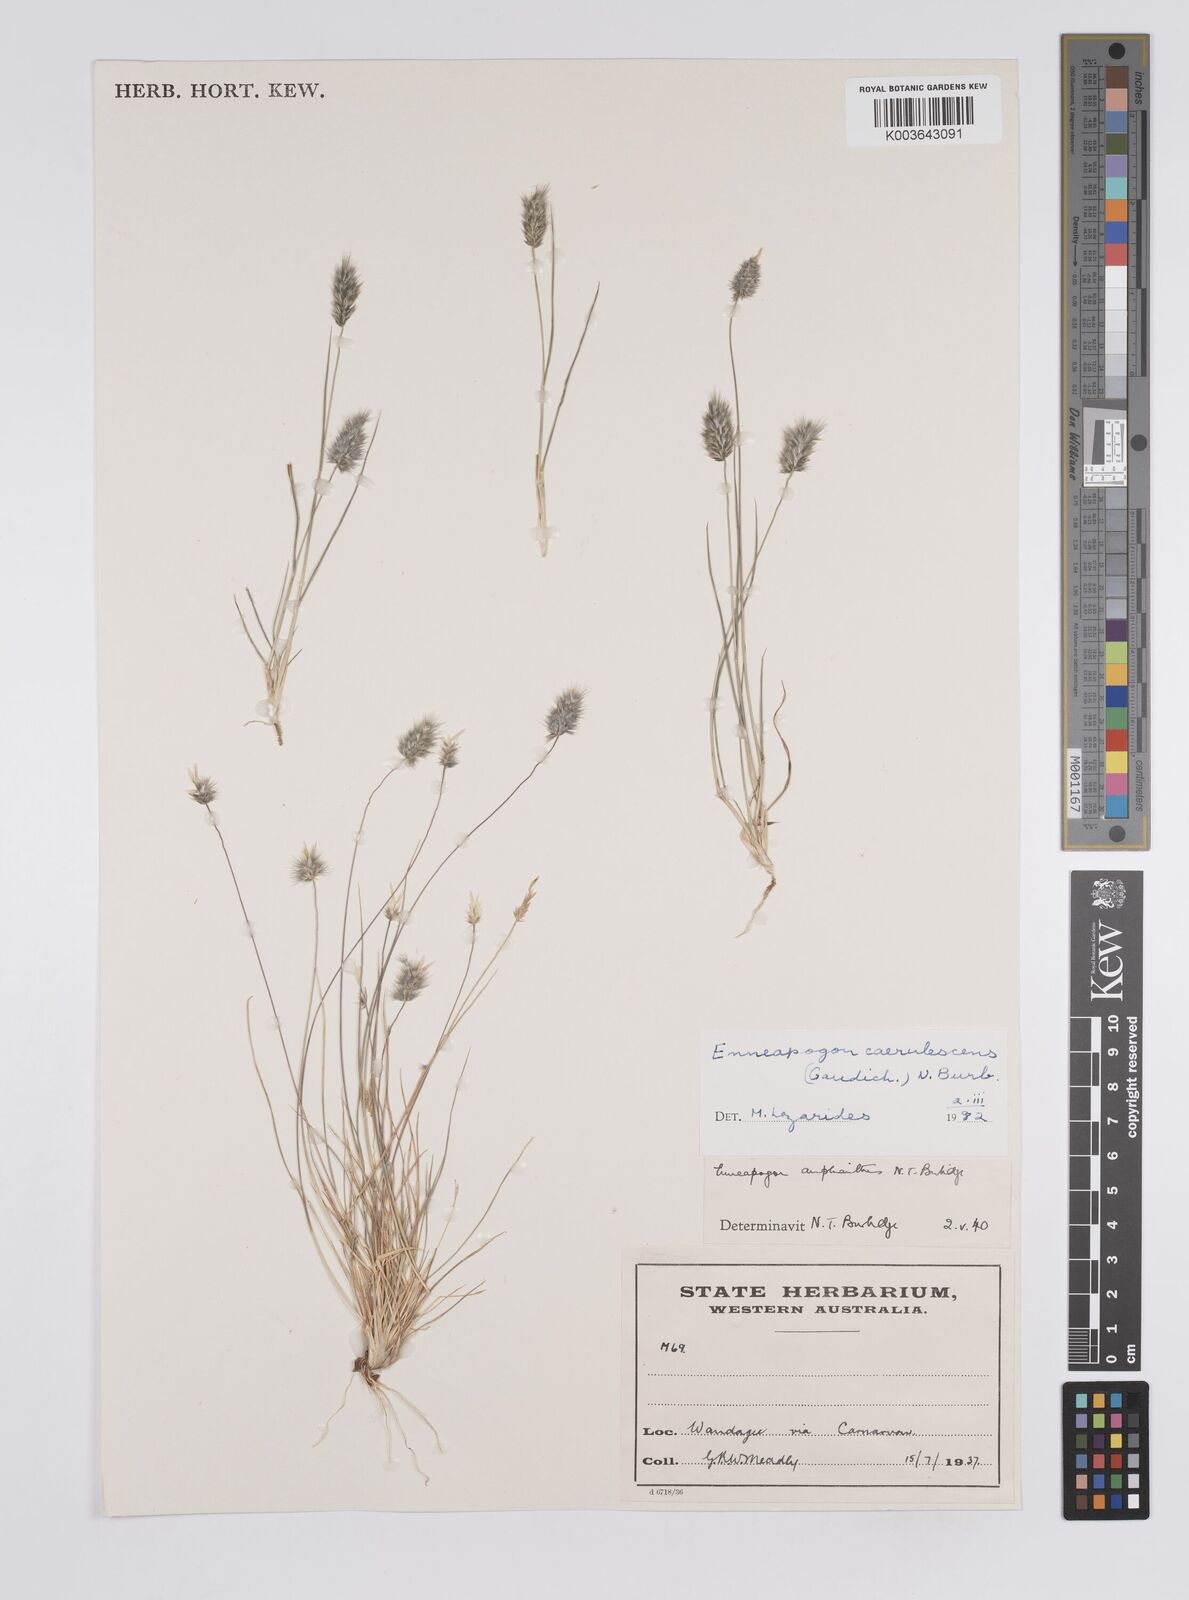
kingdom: Plantae
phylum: Tracheophyta
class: Liliopsida
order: Poales
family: Poaceae
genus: Enneapogon
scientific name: Enneapogon caerulescens
